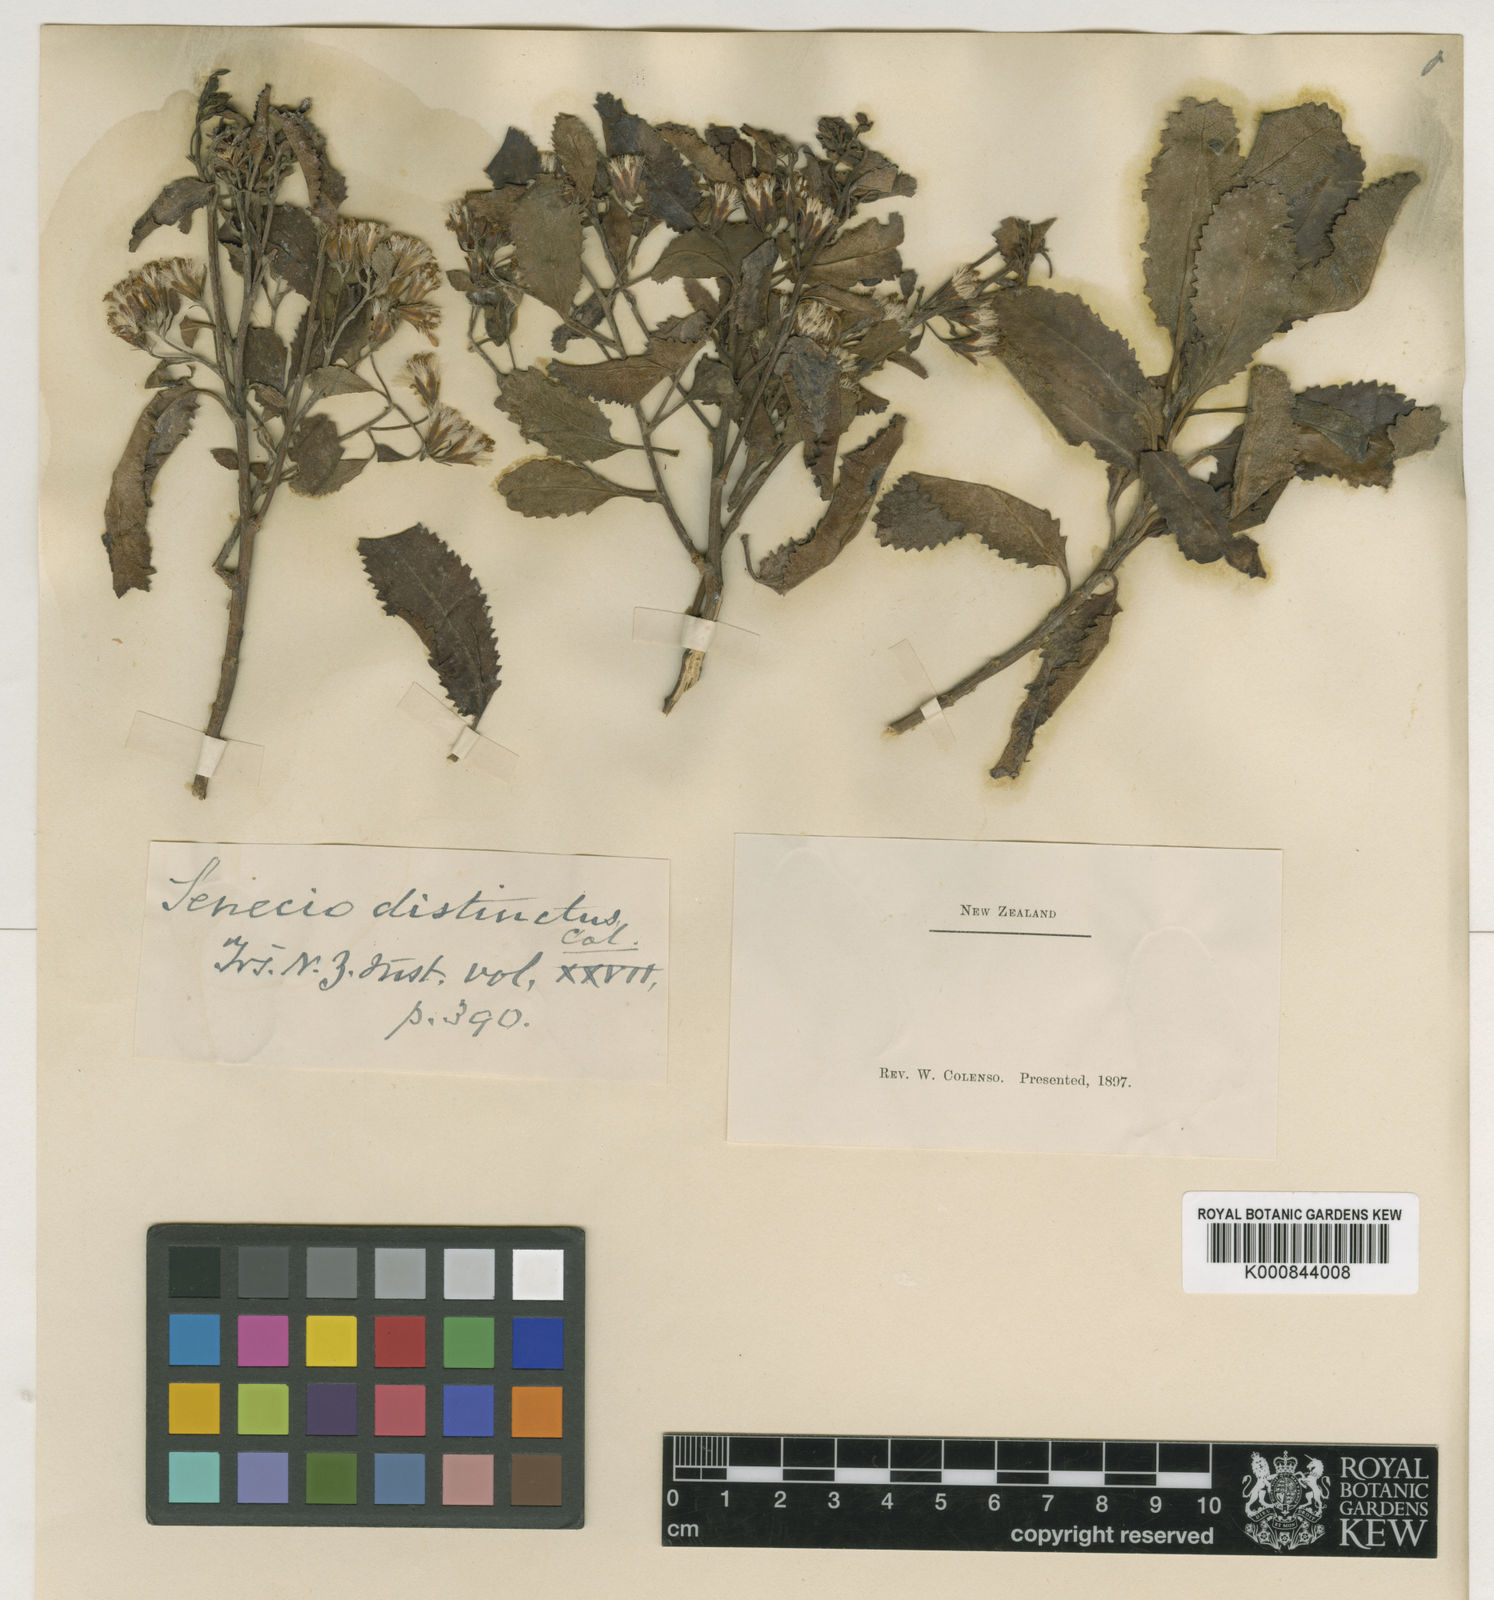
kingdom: Plantae
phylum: Tracheophyta
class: Magnoliopsida
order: Asterales
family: Asteraceae
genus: Brachyglottis
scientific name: Brachyglottis perdicioides
